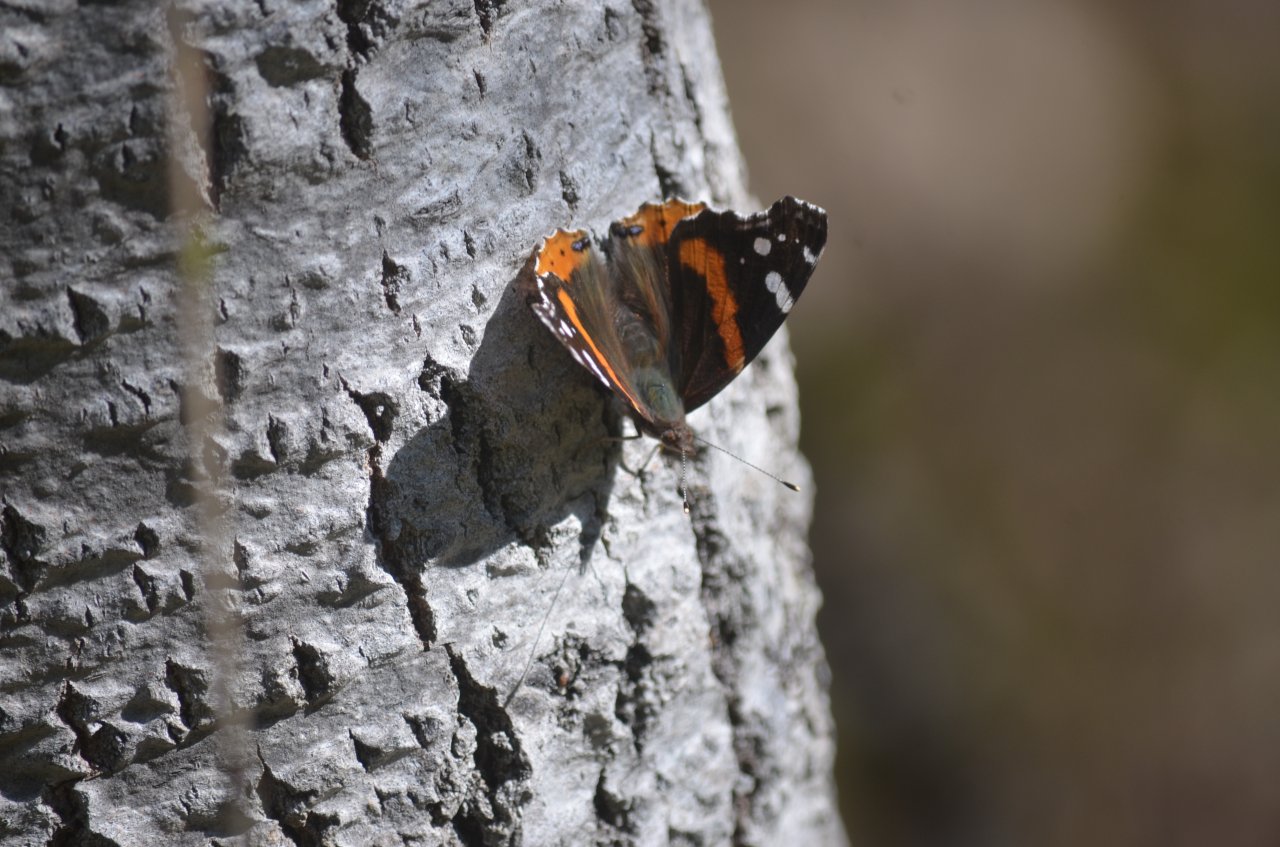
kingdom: Animalia
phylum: Arthropoda
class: Insecta
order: Lepidoptera
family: Nymphalidae
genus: Vanessa
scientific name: Vanessa atalanta
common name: Red Admiral
